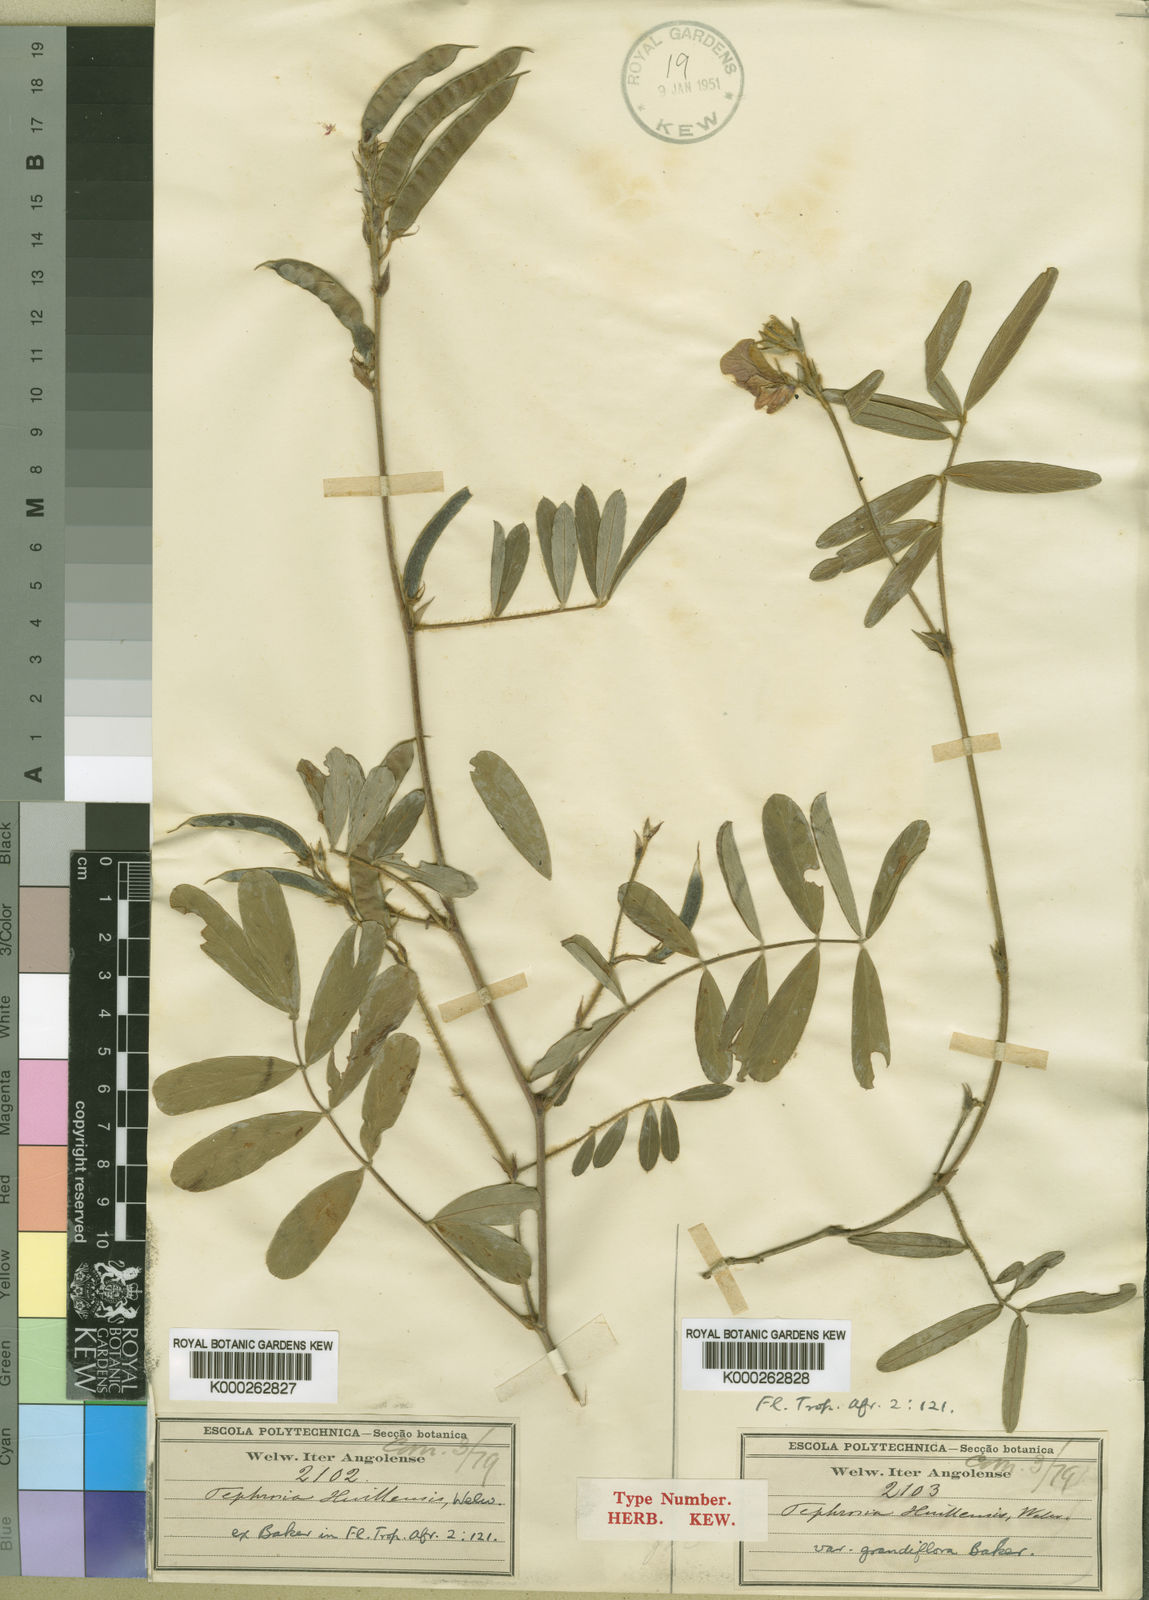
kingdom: Plantae
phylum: Tracheophyta
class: Magnoliopsida
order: Fabales
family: Fabaceae
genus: Tephrosia
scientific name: Tephrosia huillensis
